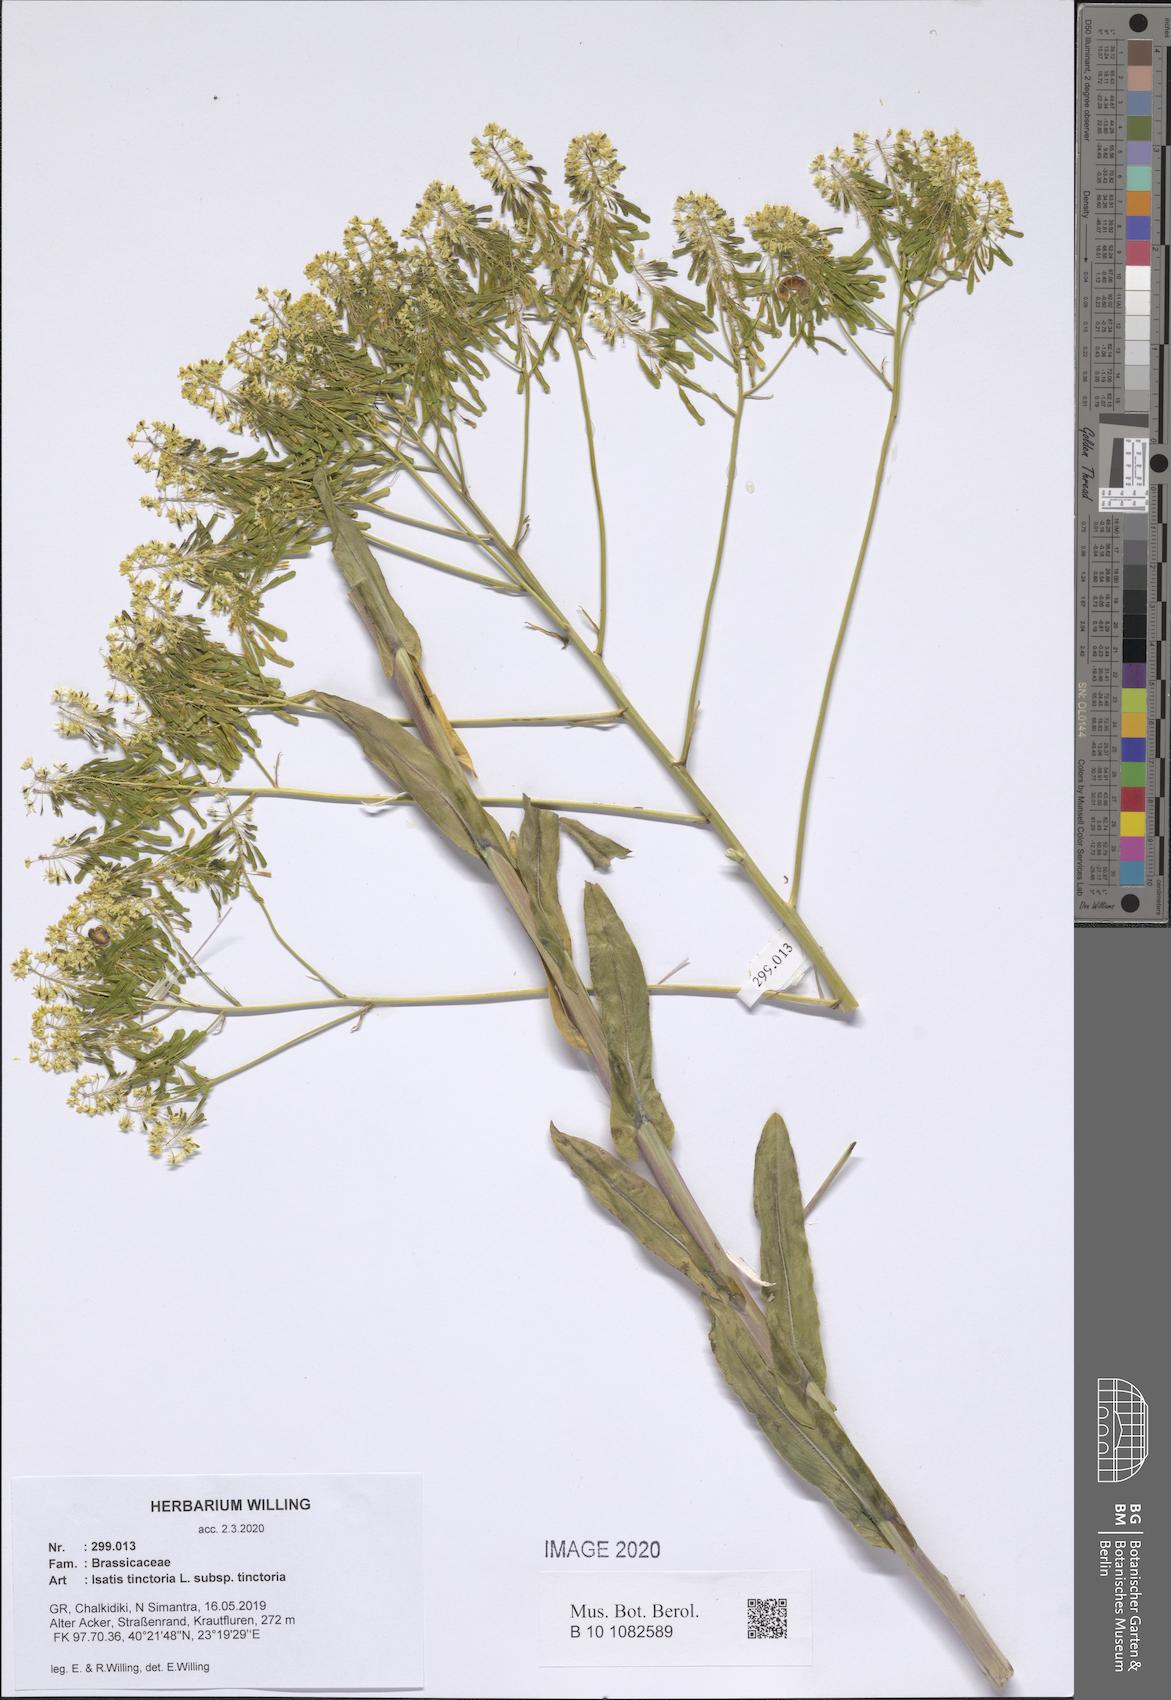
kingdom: Plantae
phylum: Tracheophyta
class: Magnoliopsida
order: Brassicales
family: Brassicaceae
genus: Isatis
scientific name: Isatis tinctoria
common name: Woad
